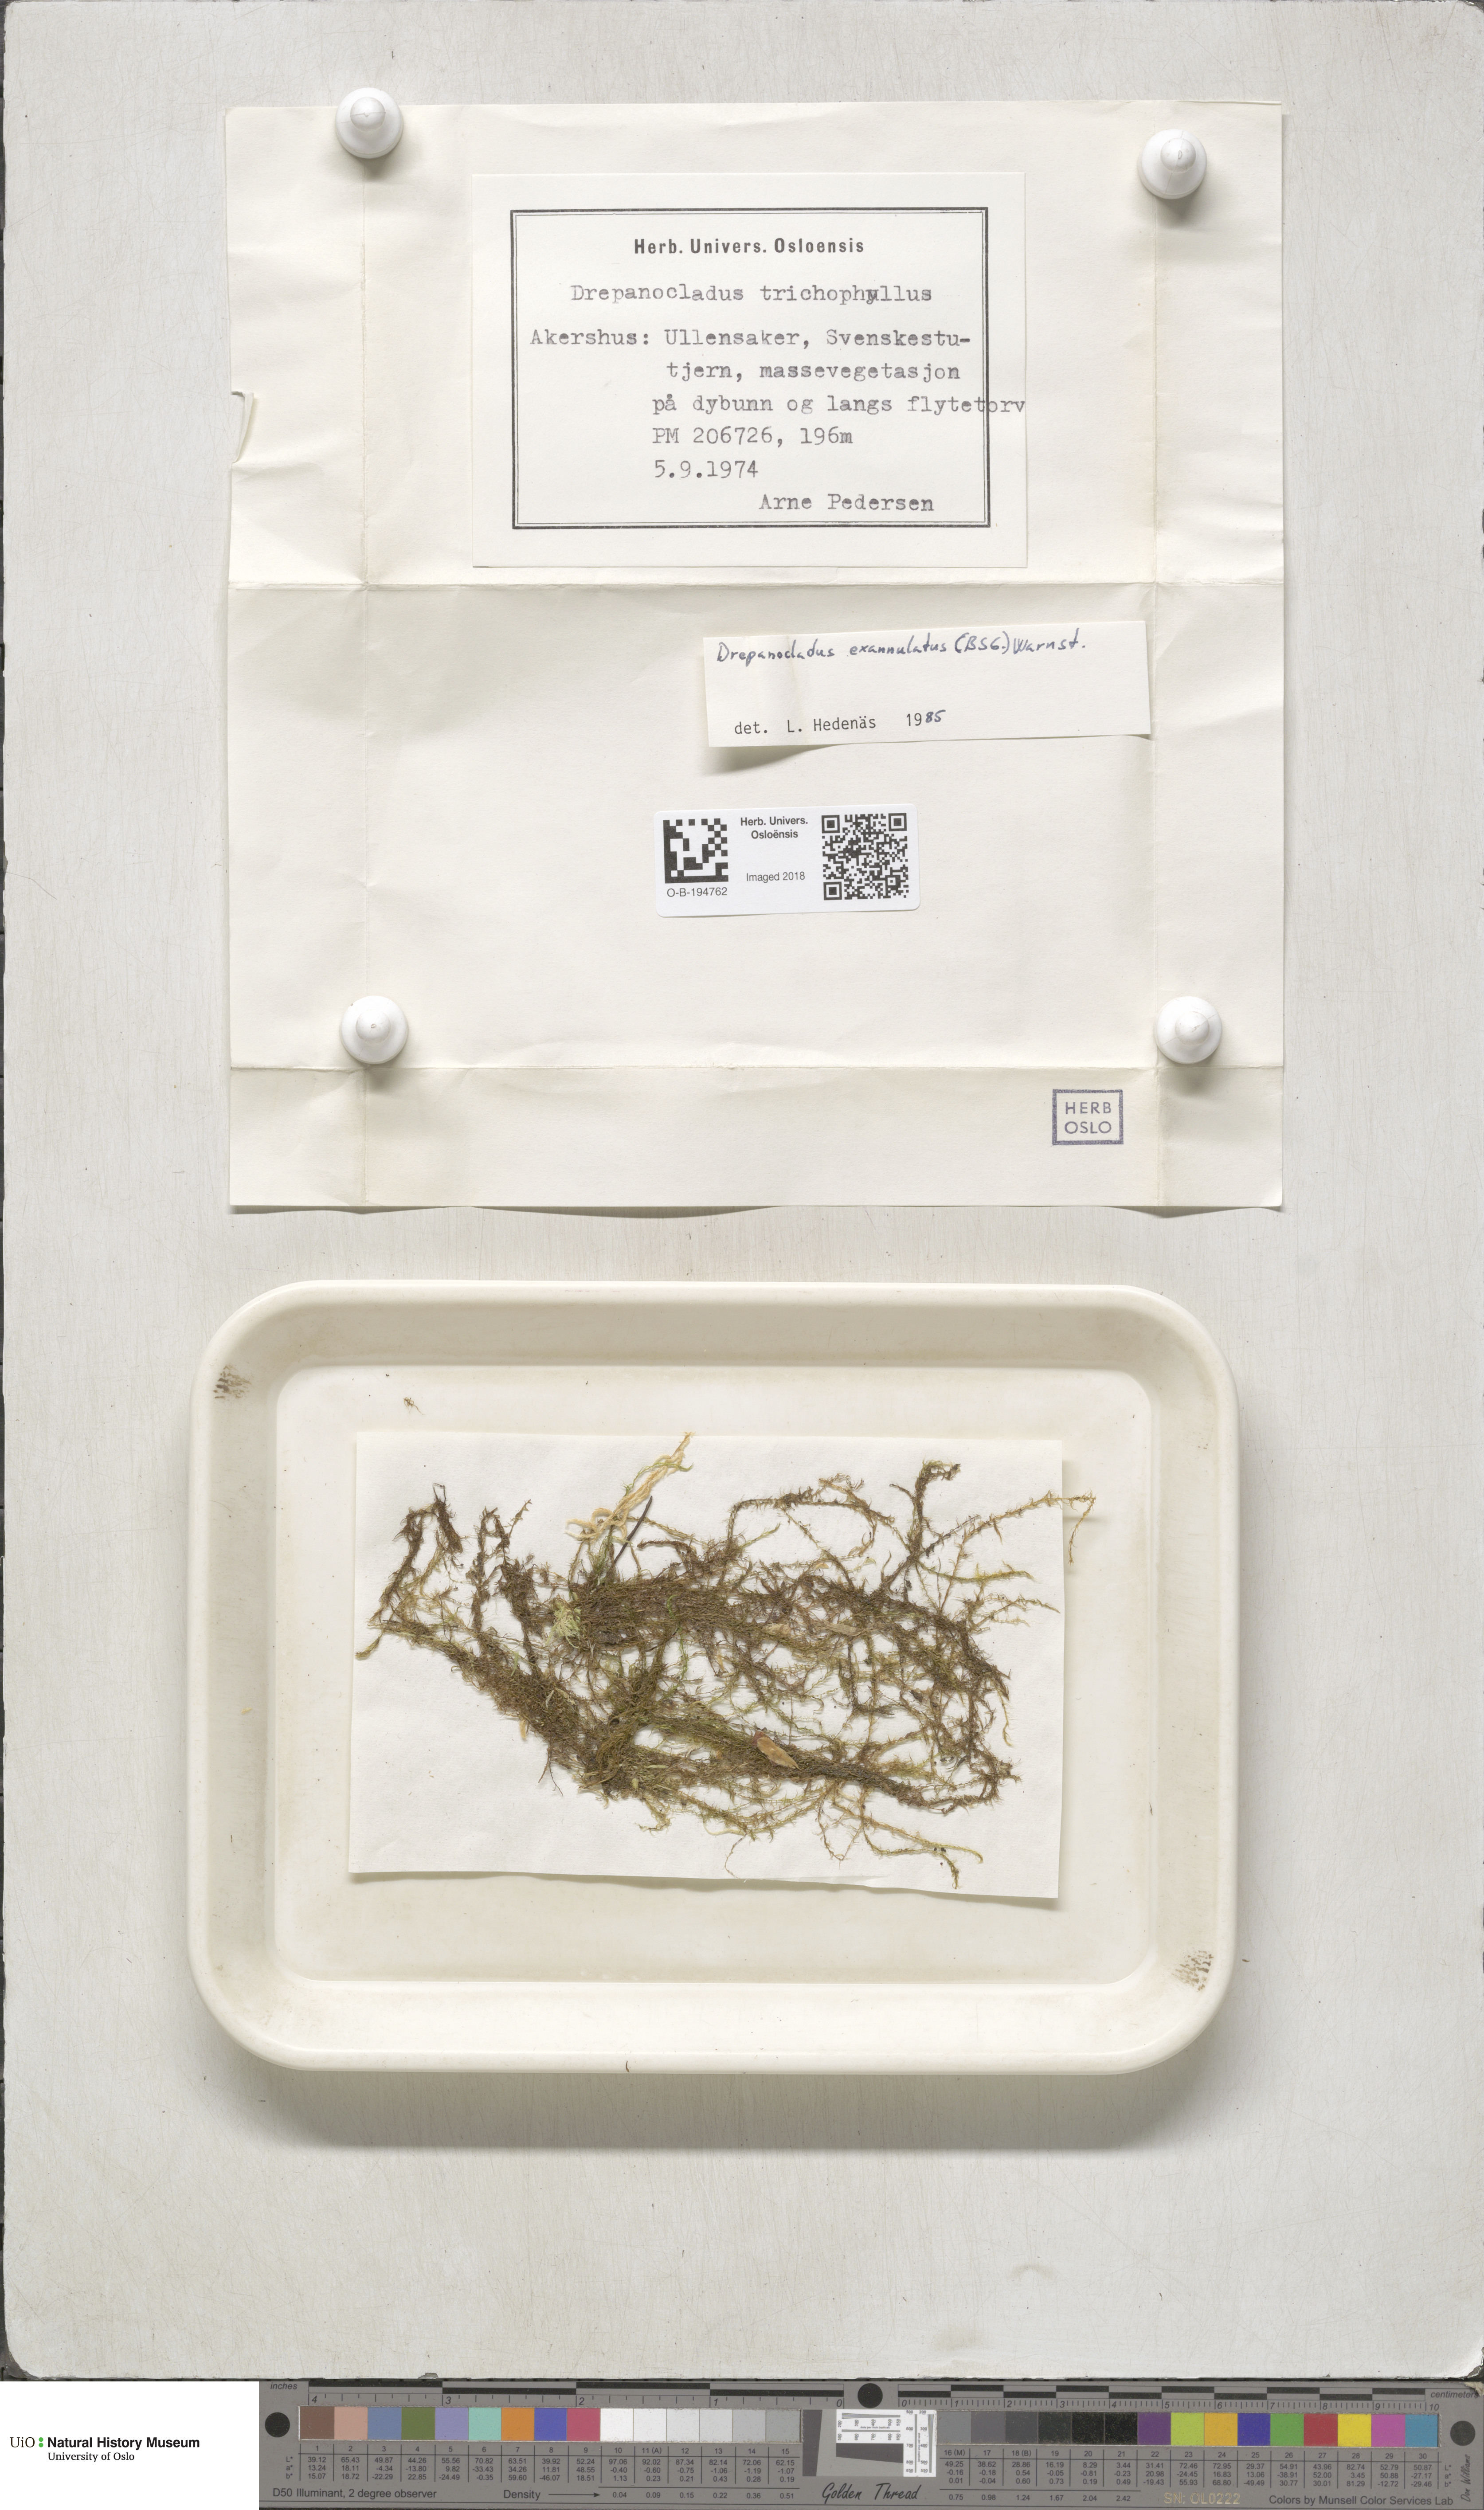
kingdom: Plantae
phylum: Bryophyta
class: Bryopsida
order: Hypnales
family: Calliergonaceae
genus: Sarmentypnum
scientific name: Sarmentypnum exannulatum
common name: Ringless spoon moss
